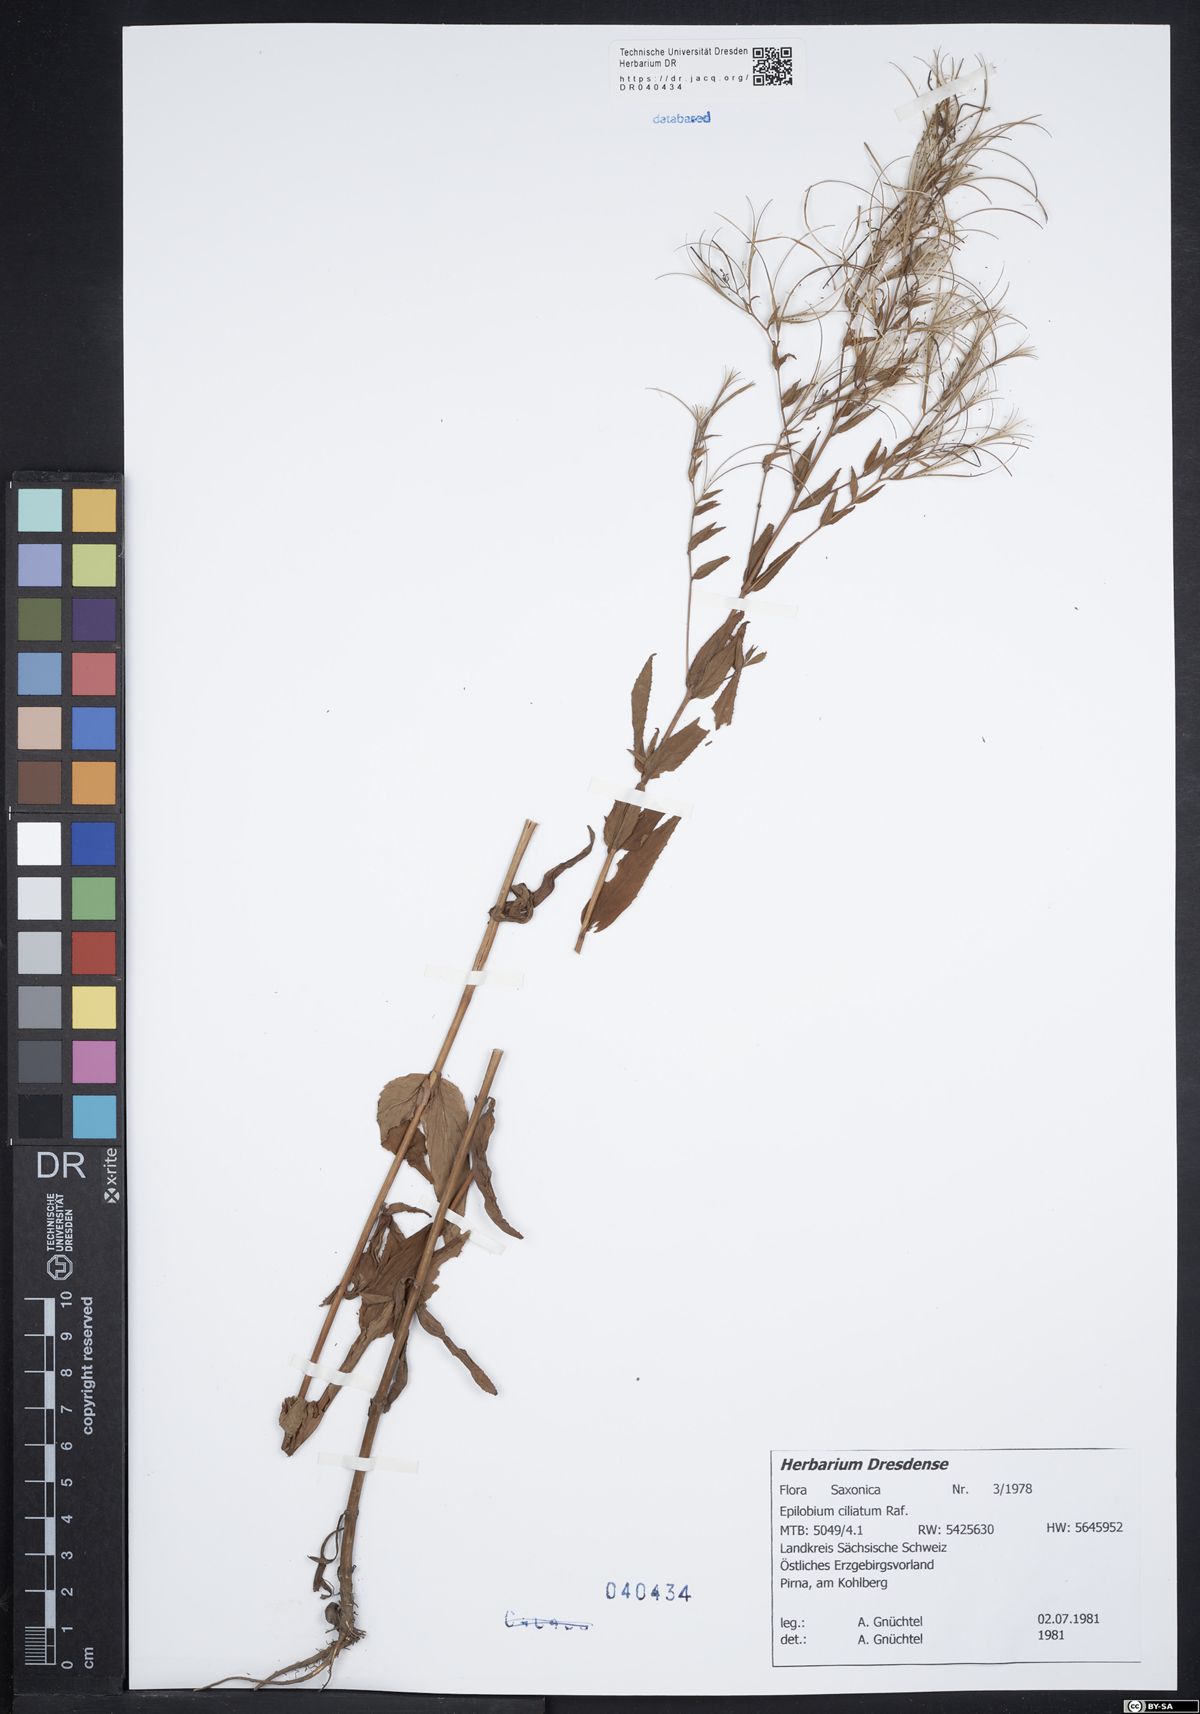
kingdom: Plantae
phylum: Tracheophyta
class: Magnoliopsida
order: Myrtales
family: Onagraceae
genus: Epilobium
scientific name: Epilobium ciliatum
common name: American willowherb
